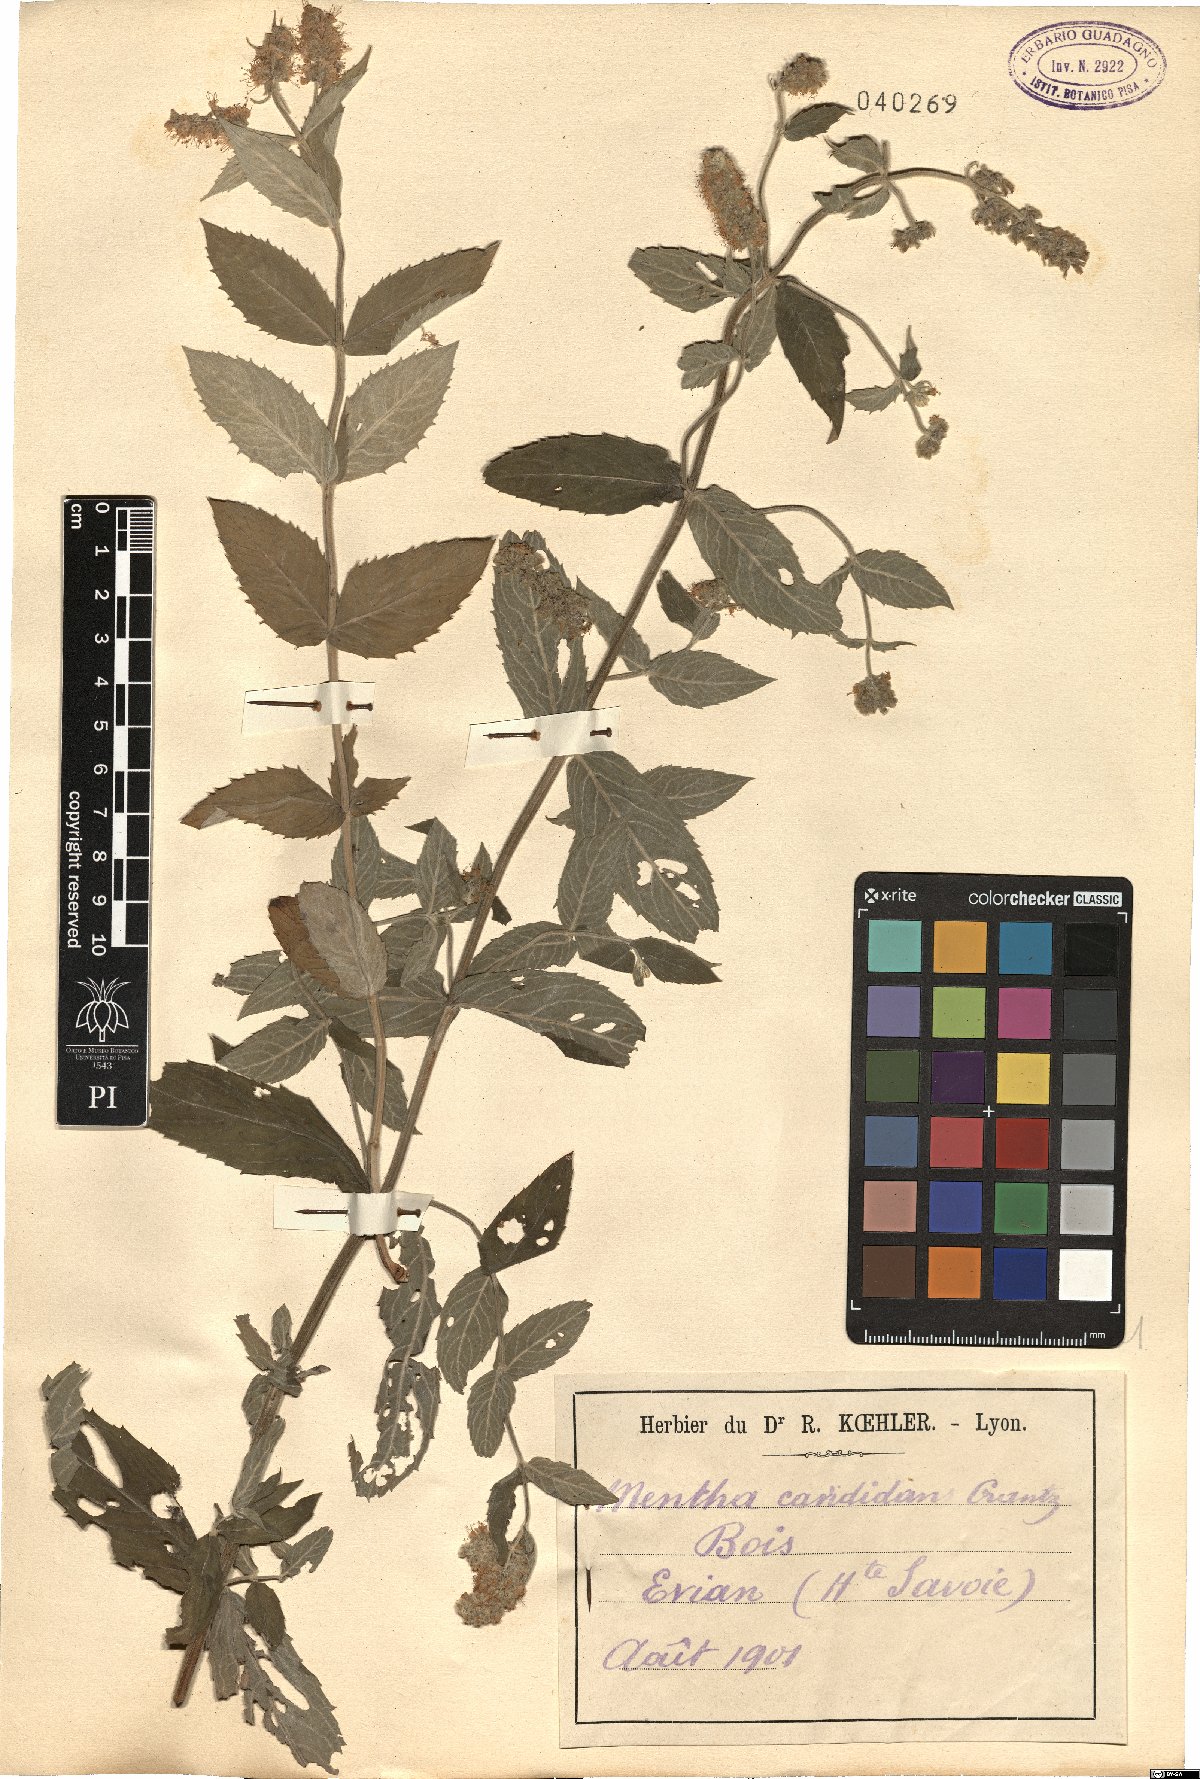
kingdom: Plantae
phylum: Tracheophyta
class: Magnoliopsida
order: Lamiales
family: Lamiaceae
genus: Mentha
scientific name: Mentha longifolia
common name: Horse mint
